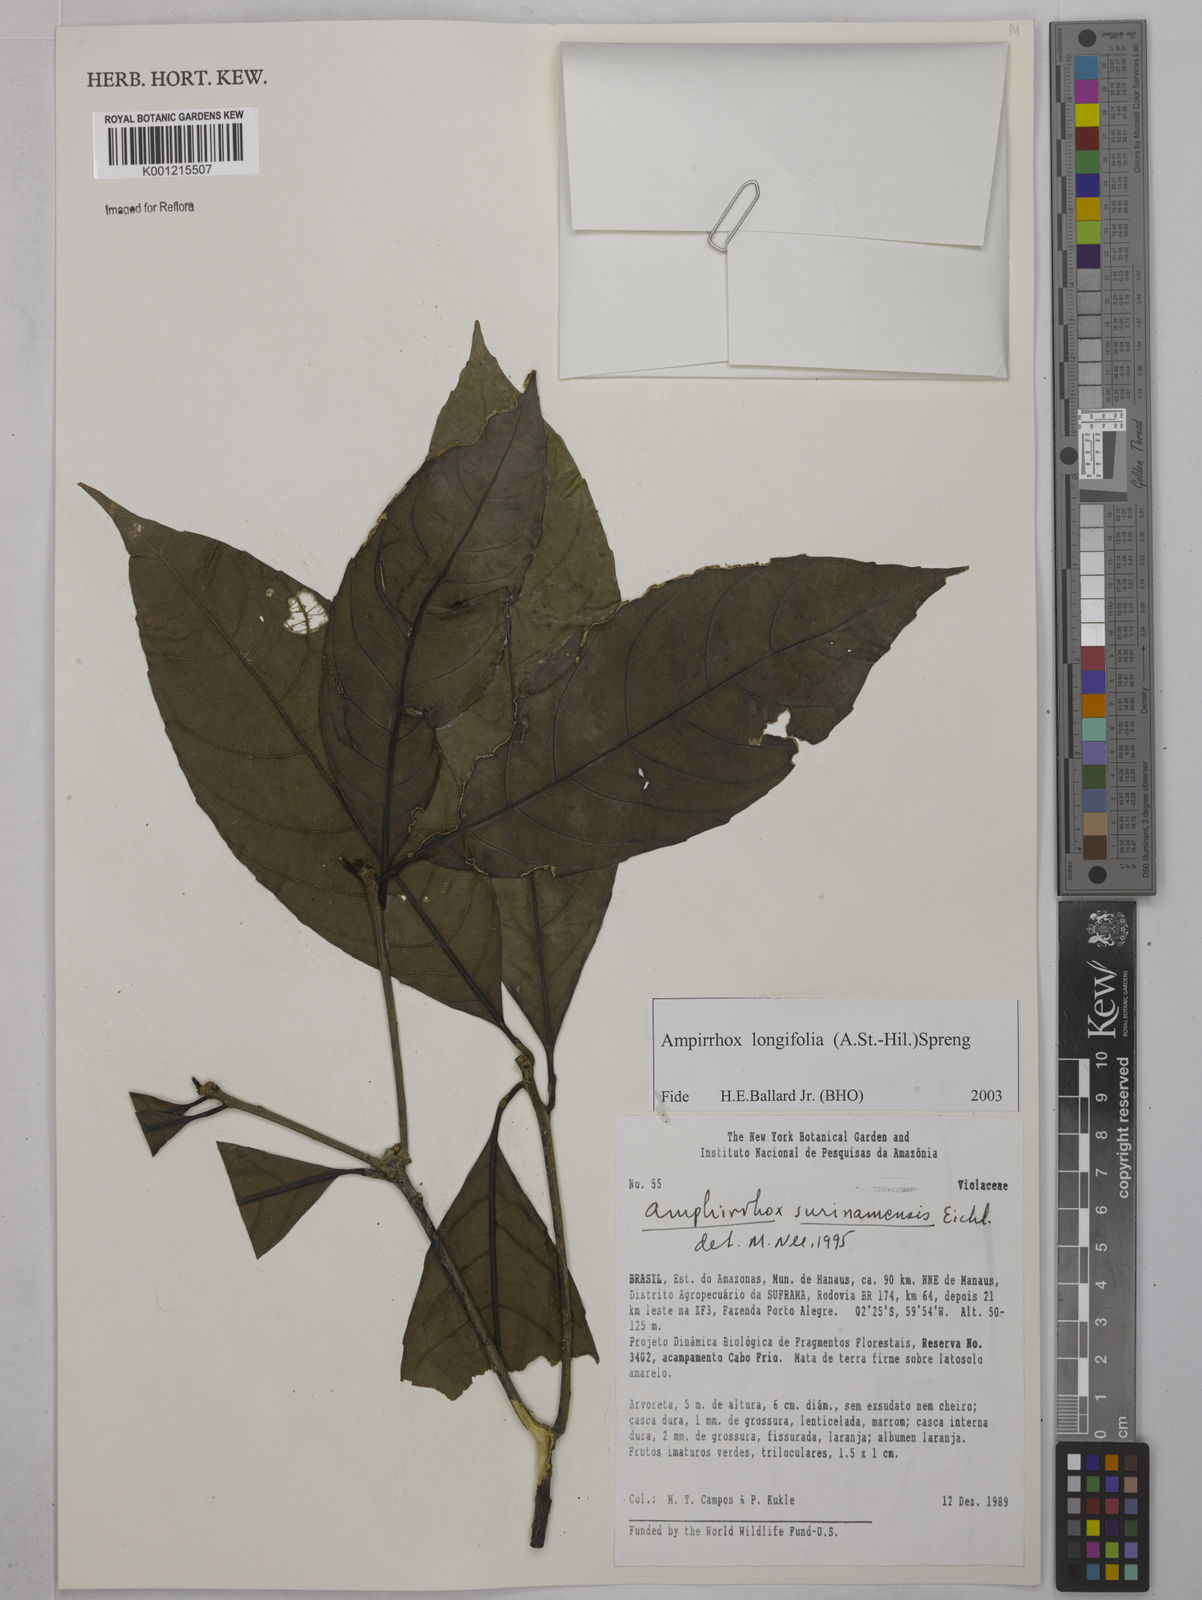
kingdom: Plantae
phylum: Tracheophyta
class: Magnoliopsida
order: Malpighiales
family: Violaceae
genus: Amphirrhox
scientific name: Amphirrhox longifolia
